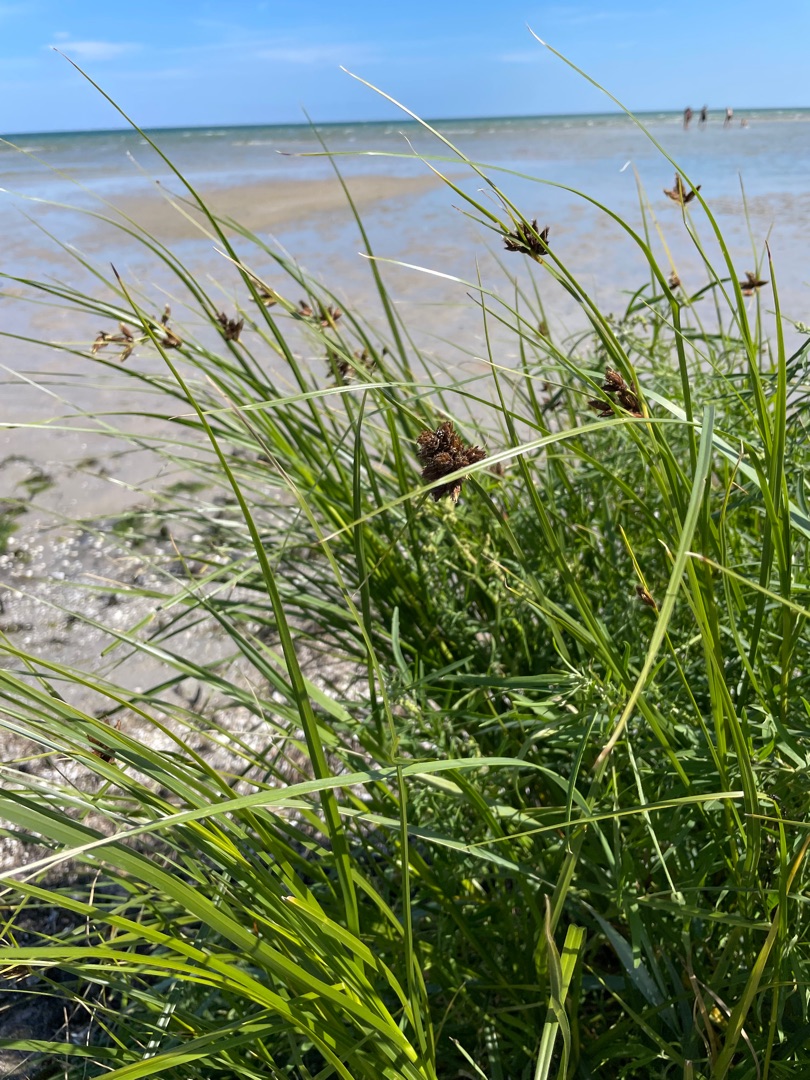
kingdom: Plantae
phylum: Tracheophyta
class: Liliopsida
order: Poales
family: Cyperaceae
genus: Bolboschoenus
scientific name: Bolboschoenus maritimus
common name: Strand-kogleaks
